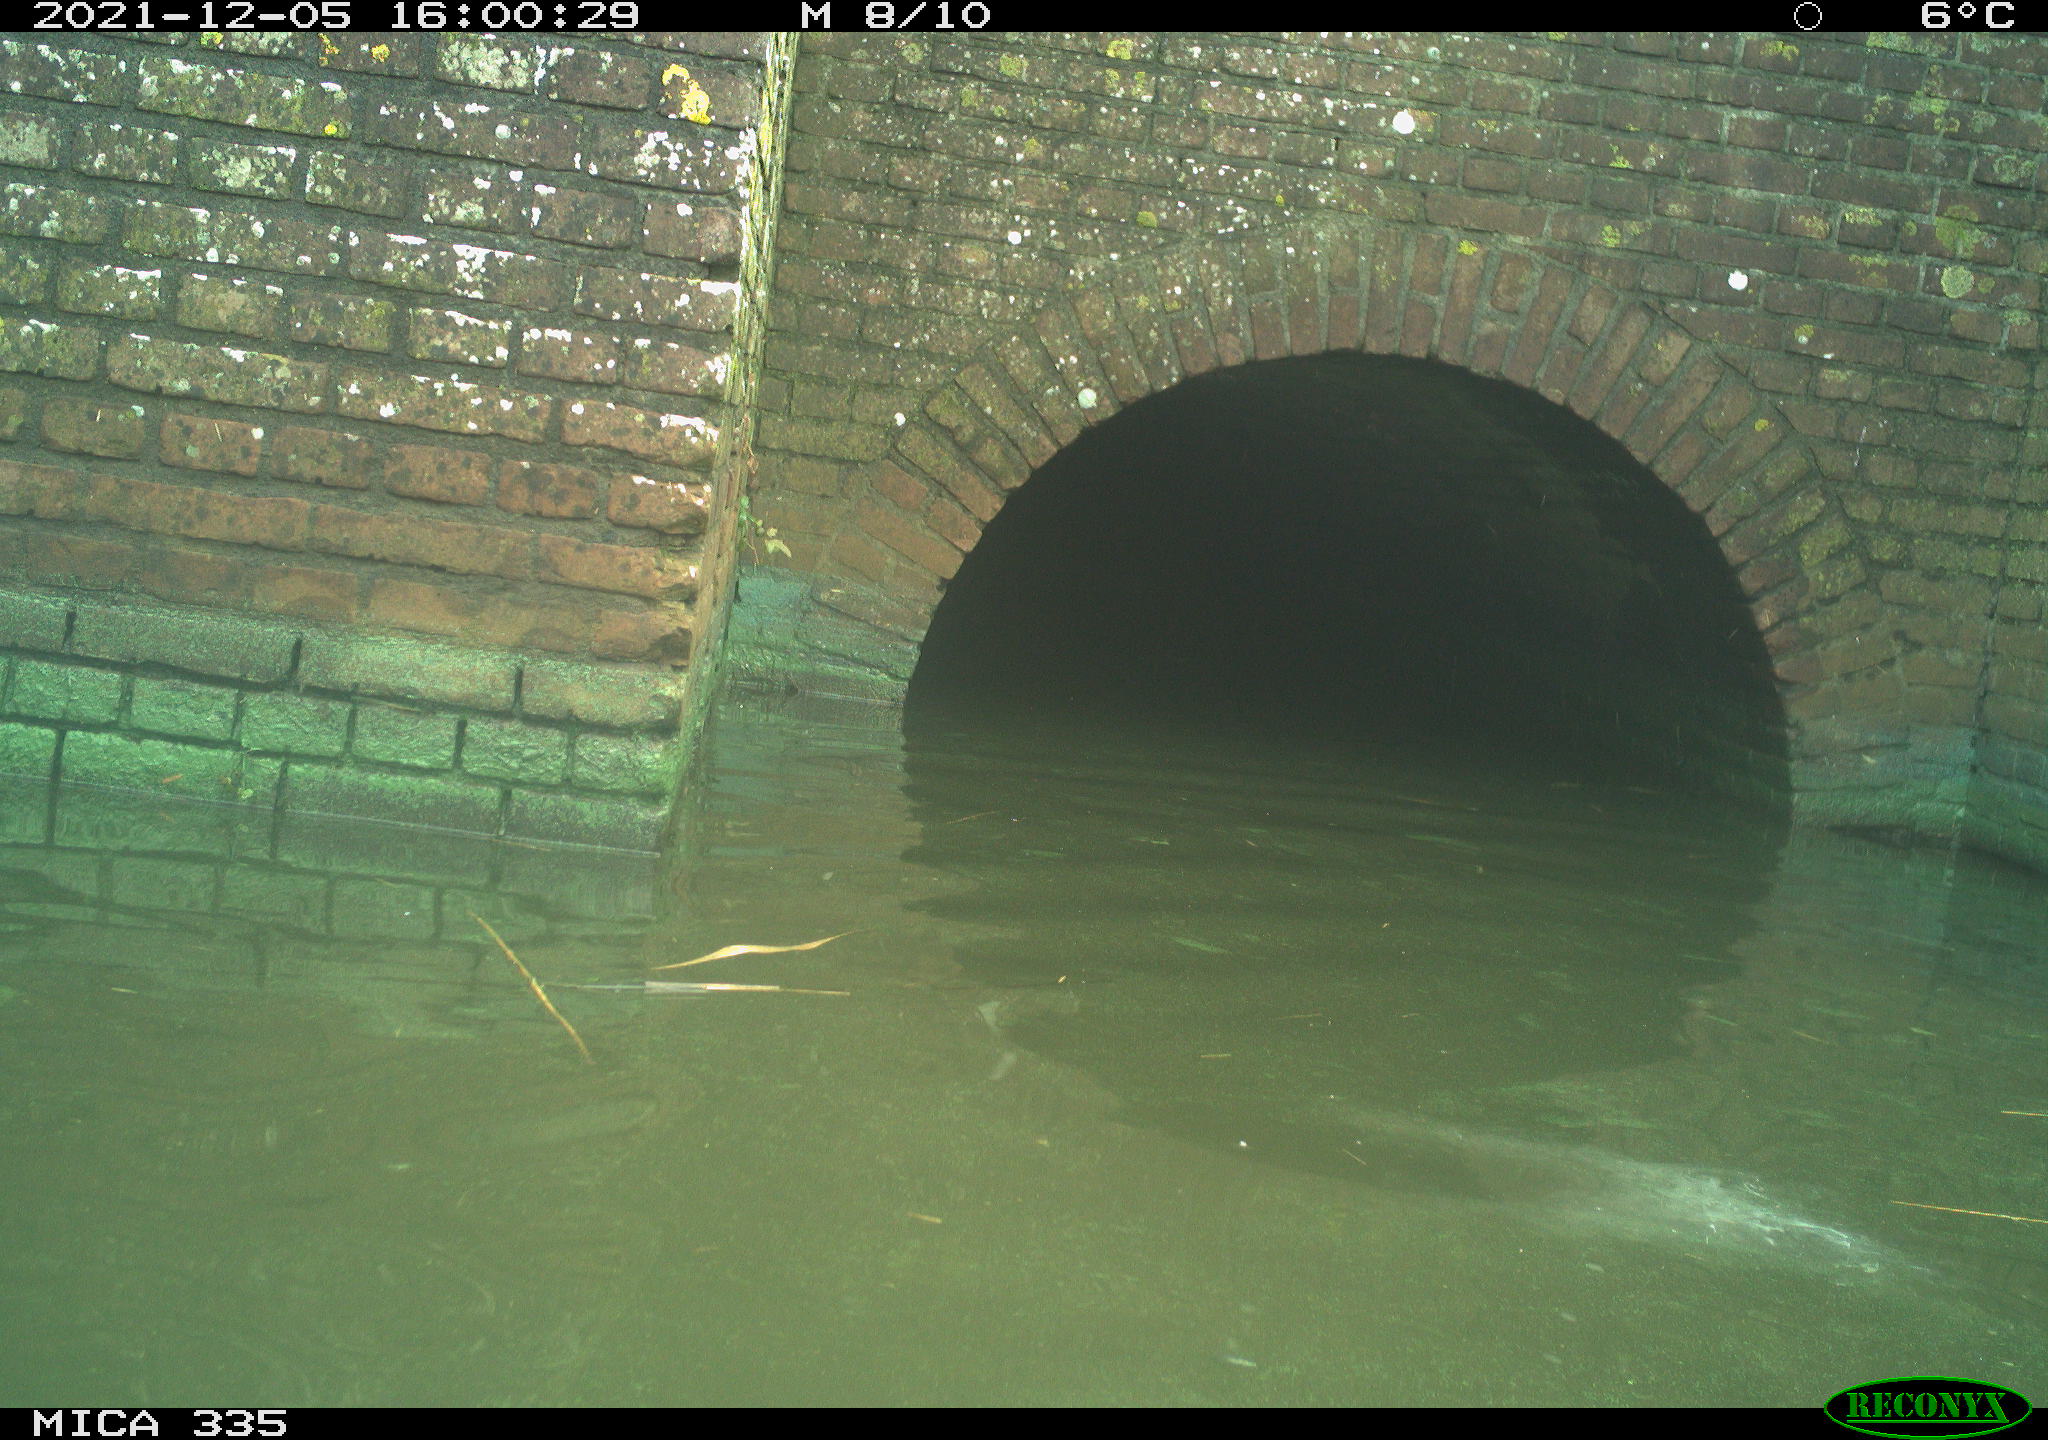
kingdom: Animalia
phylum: Chordata
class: Aves
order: Anseriformes
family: Anatidae
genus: Anas
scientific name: Anas platyrhynchos
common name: Mallard
